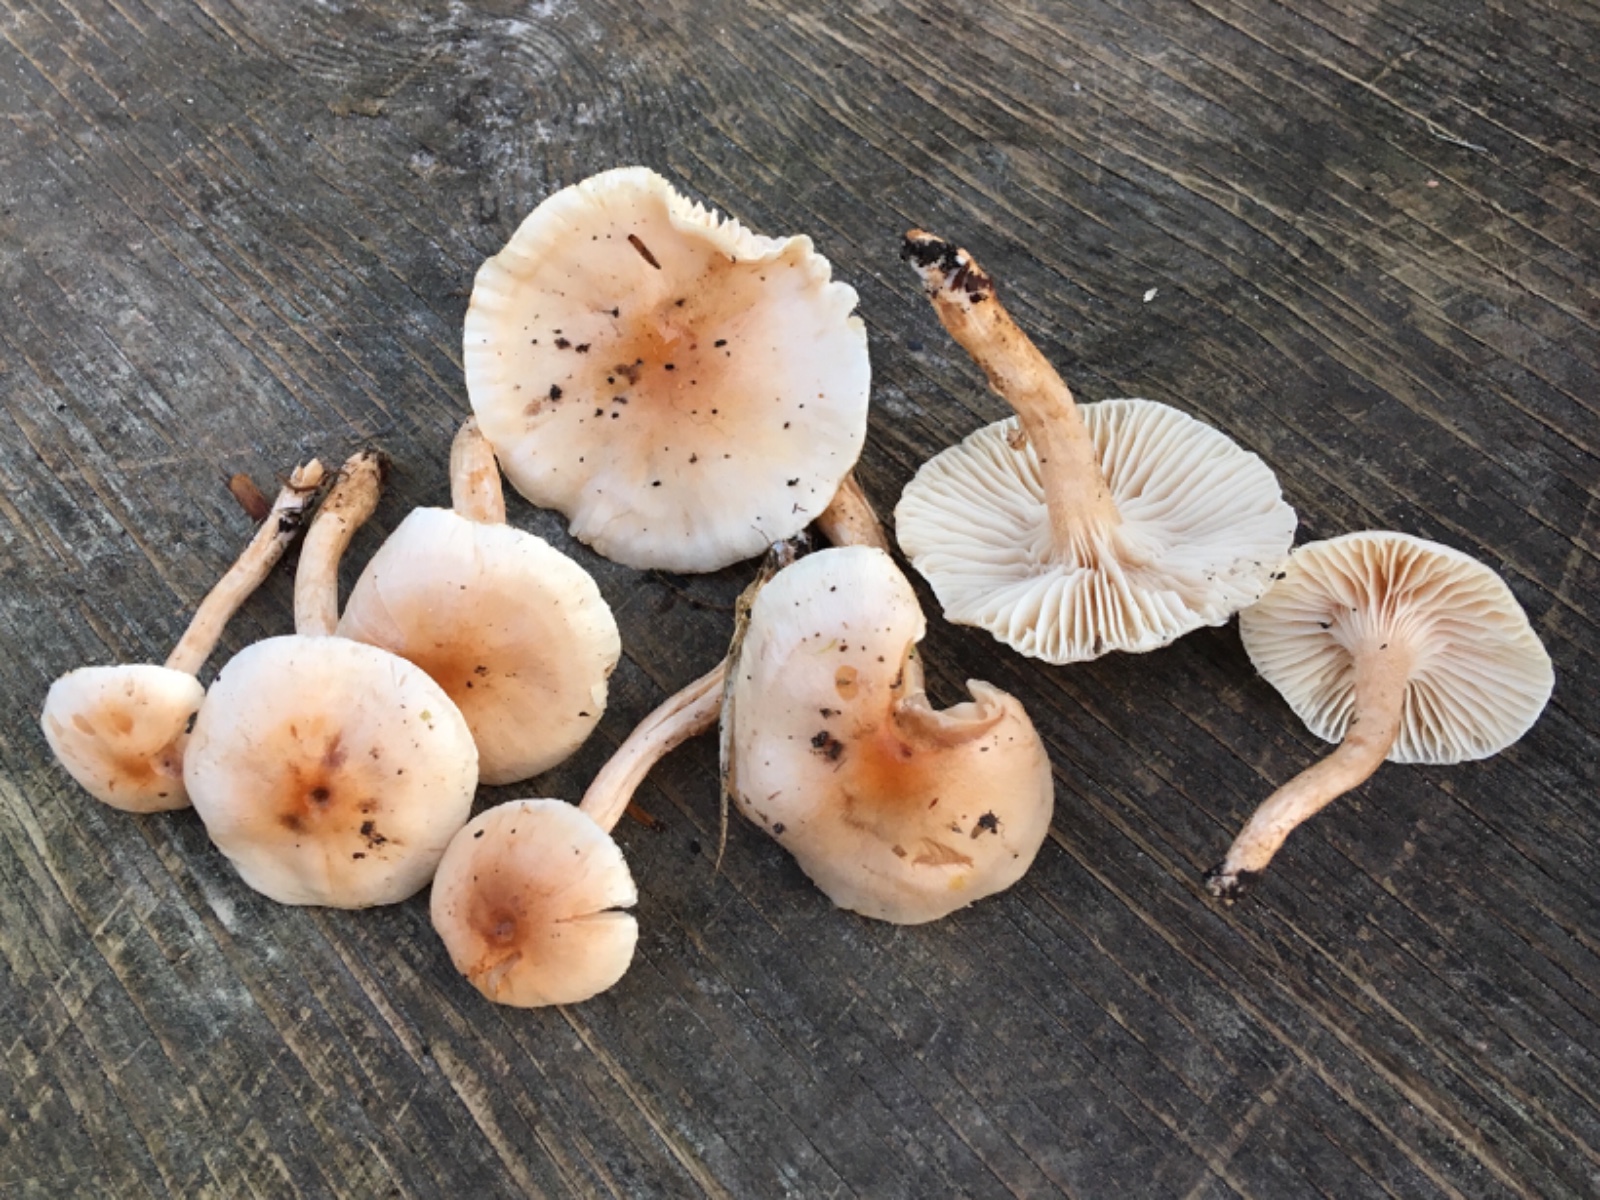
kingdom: Fungi
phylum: Basidiomycota
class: Agaricomycetes
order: Agaricales
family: Hygrophoraceae
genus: Hygrophorus
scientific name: Hygrophorus unicolor
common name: orangeøjet sneglehat
